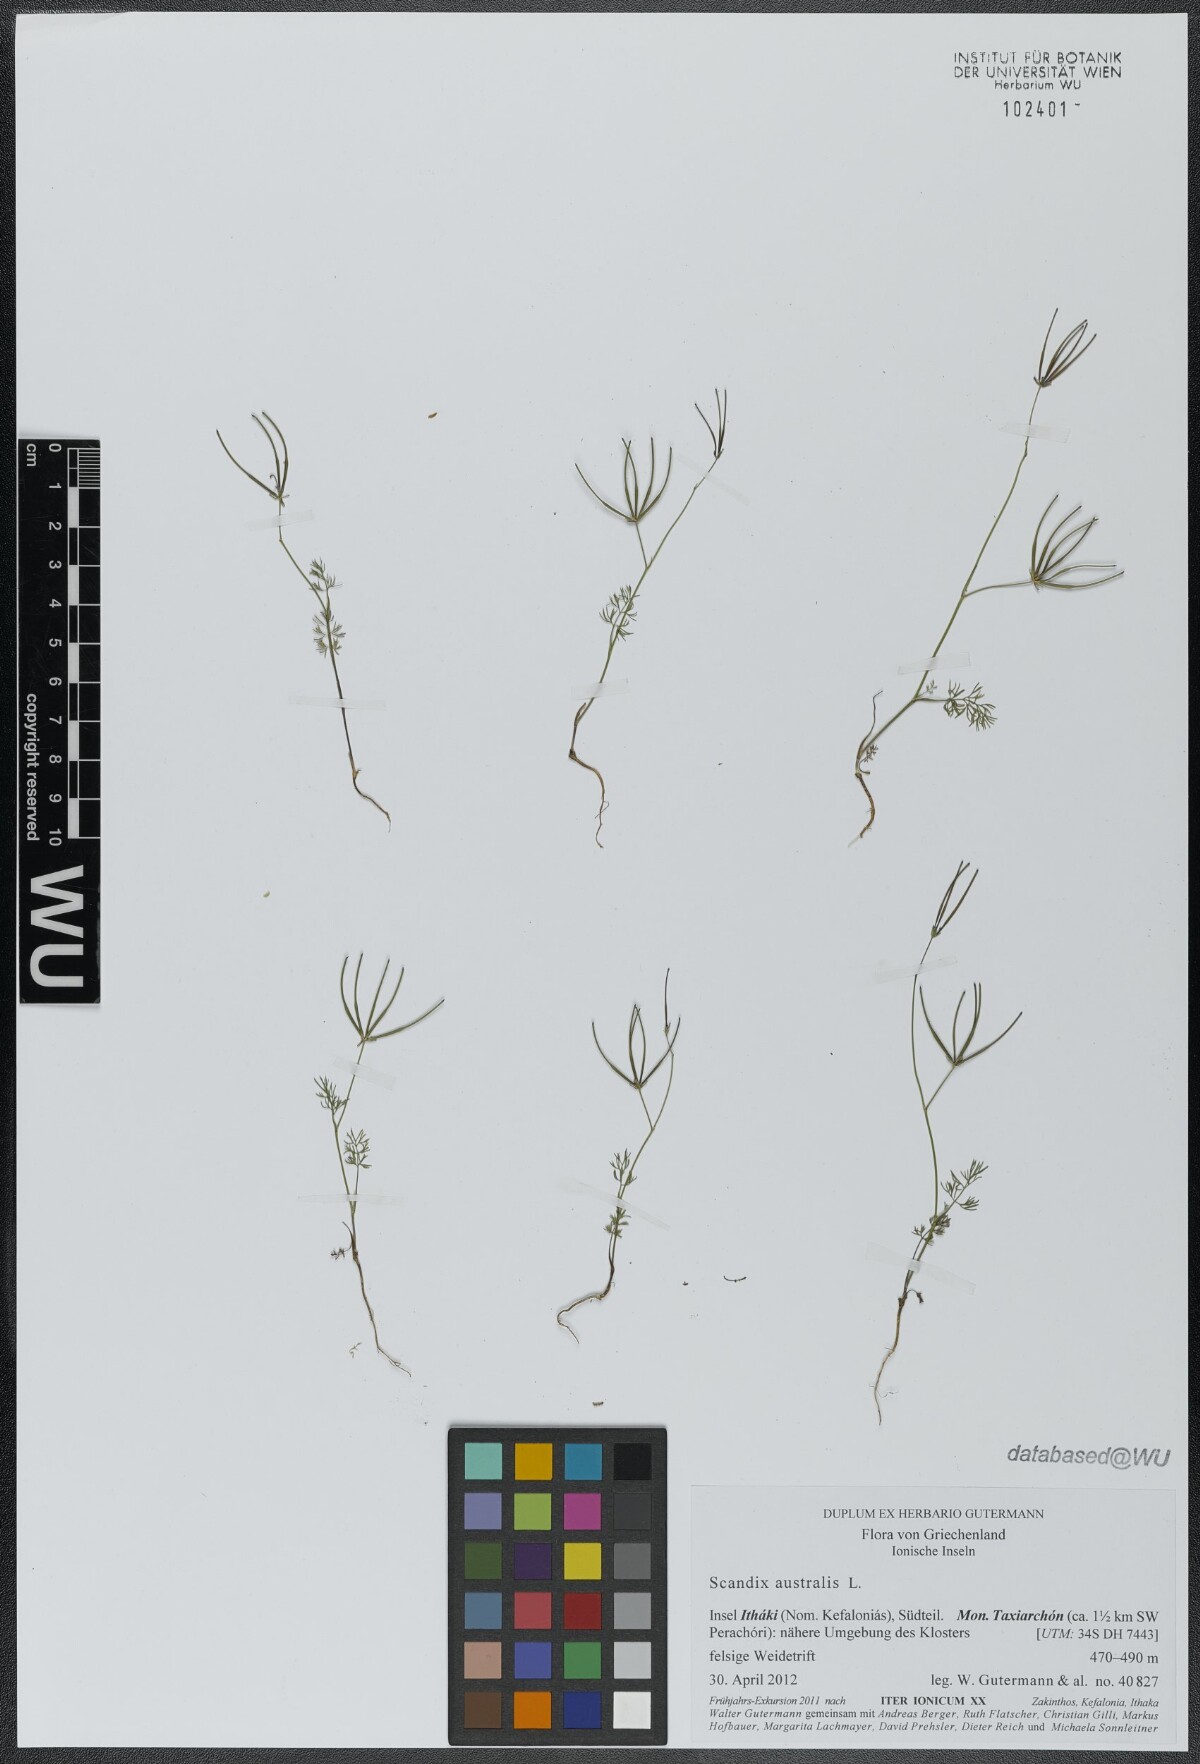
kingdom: Plantae
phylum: Tracheophyta
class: Magnoliopsida
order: Apiales
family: Apiaceae
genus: Scandix
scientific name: Scandix australis
